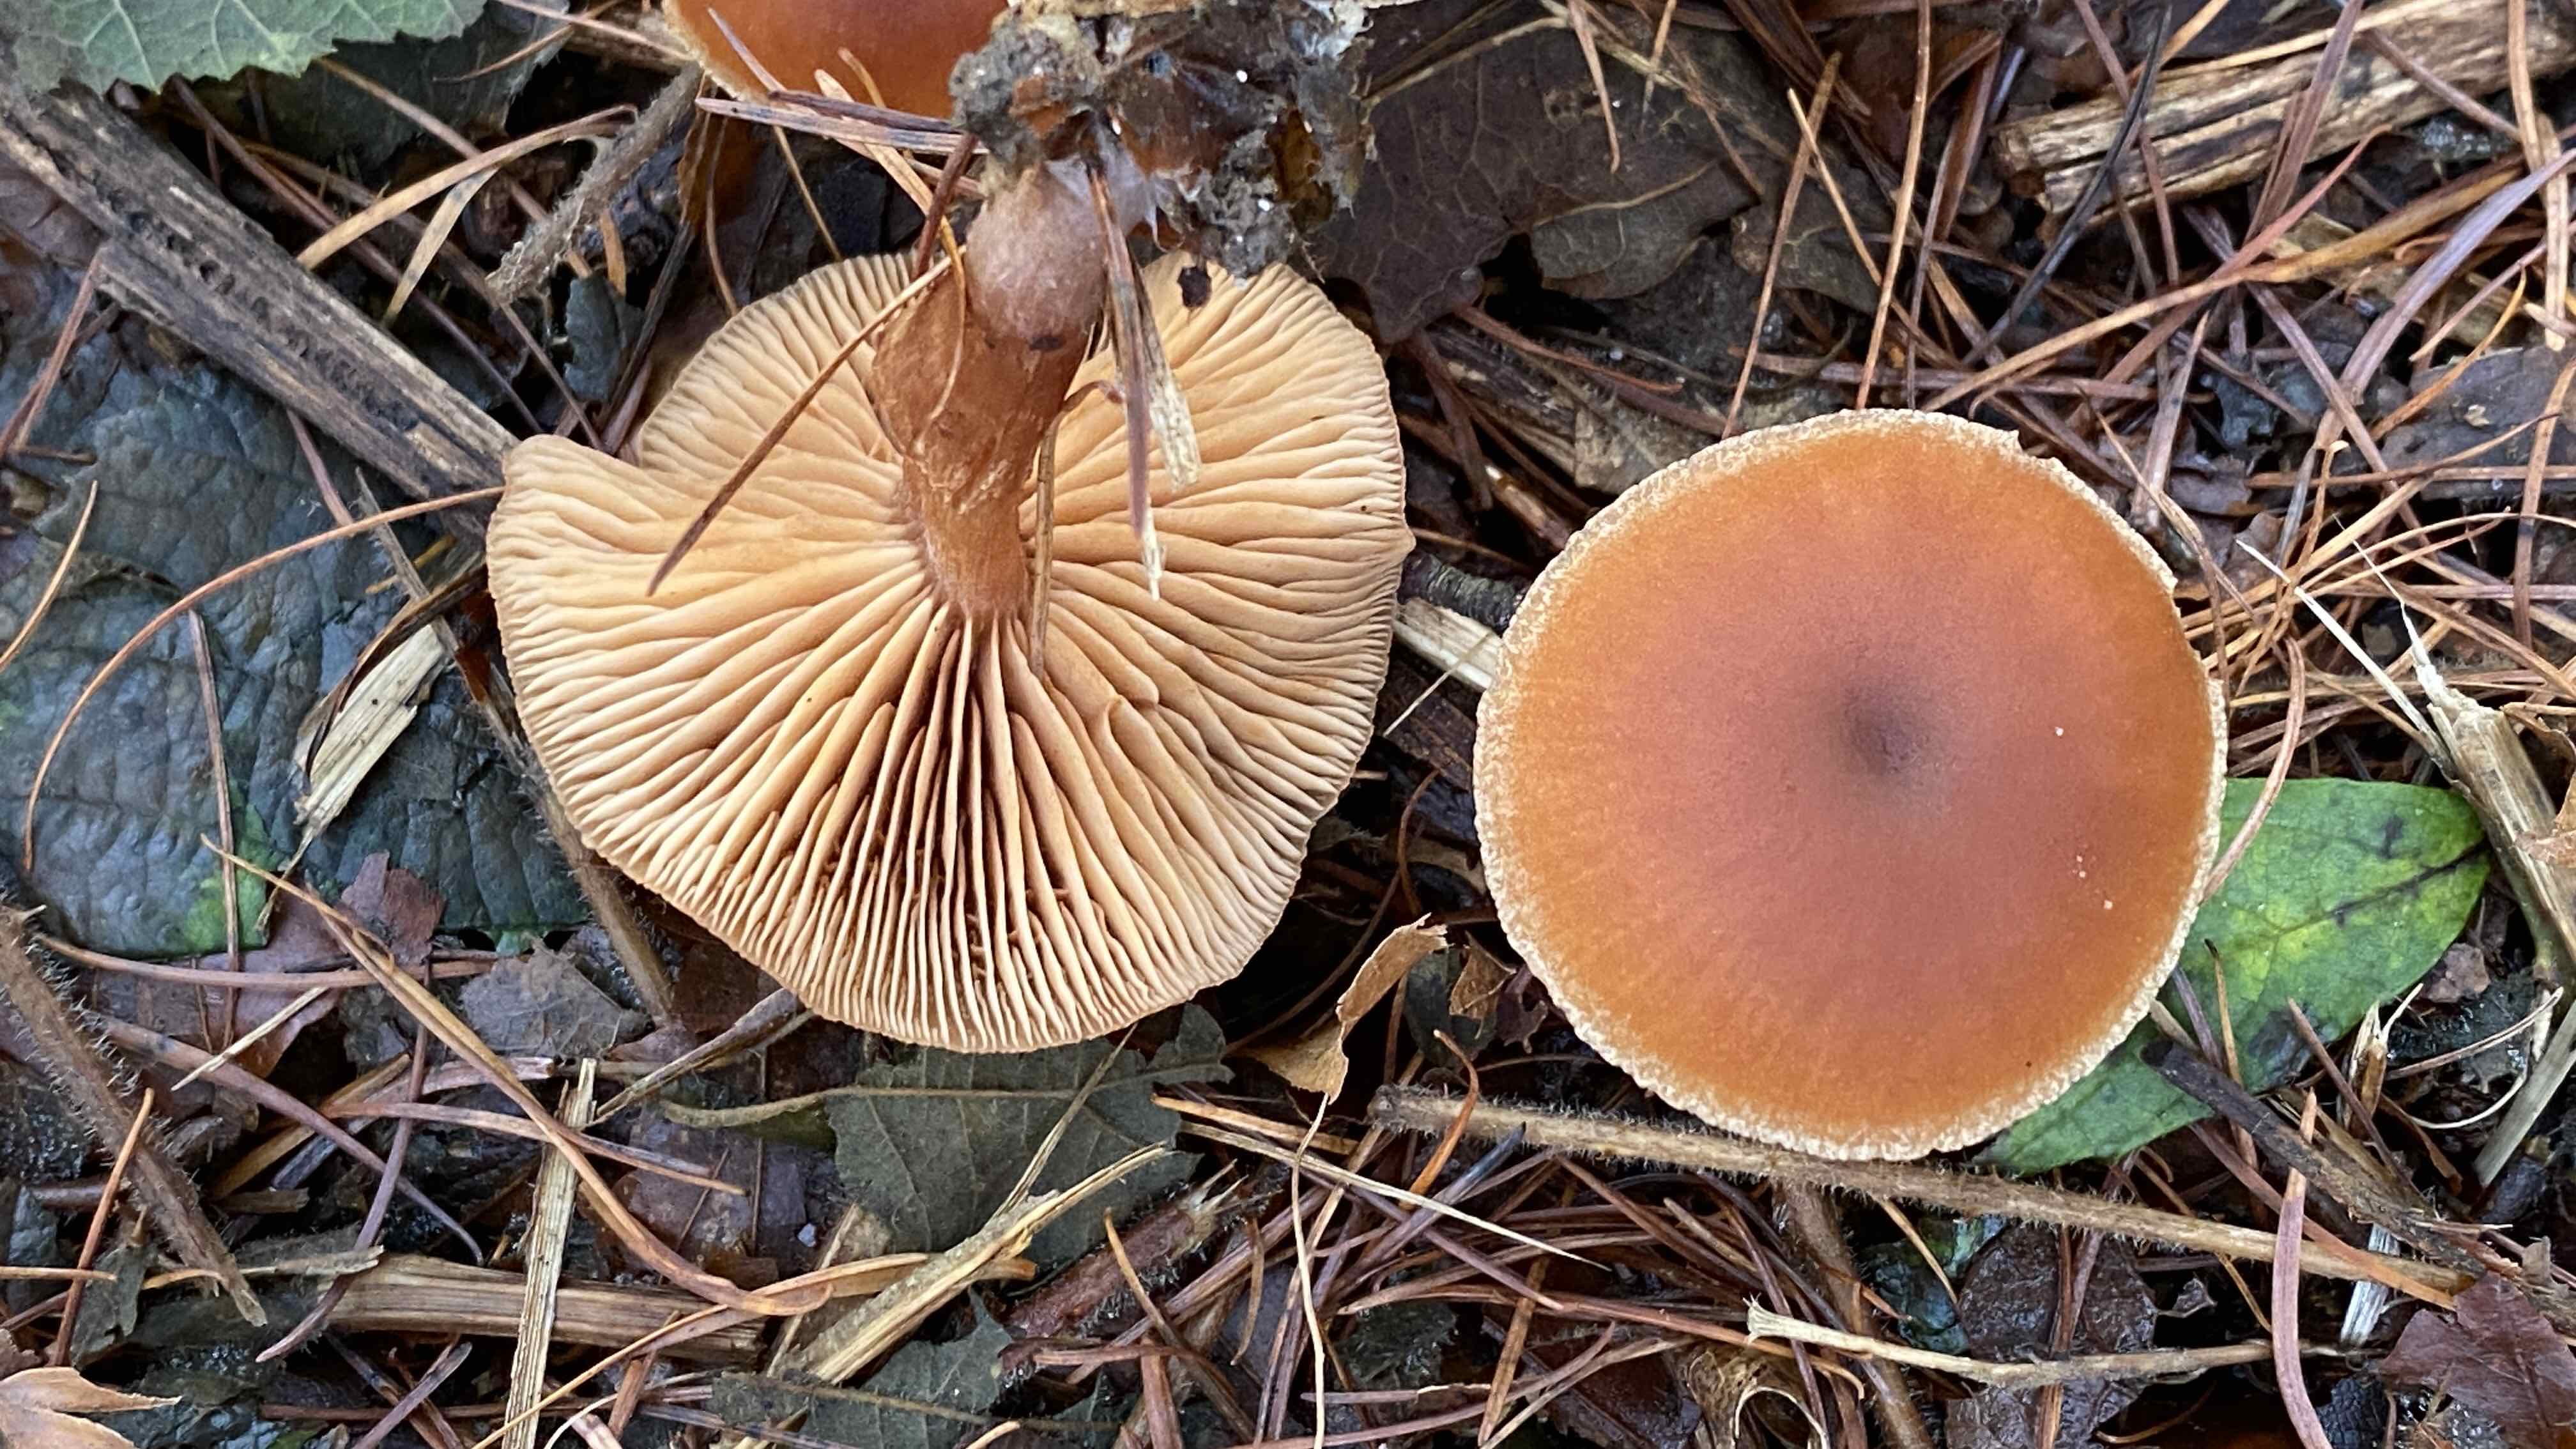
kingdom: Fungi
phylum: Basidiomycota
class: Agaricomycetes
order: Agaricales
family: Tubariaceae
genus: Tubaria
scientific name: Tubaria furfuracea
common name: kliddet fnughat
